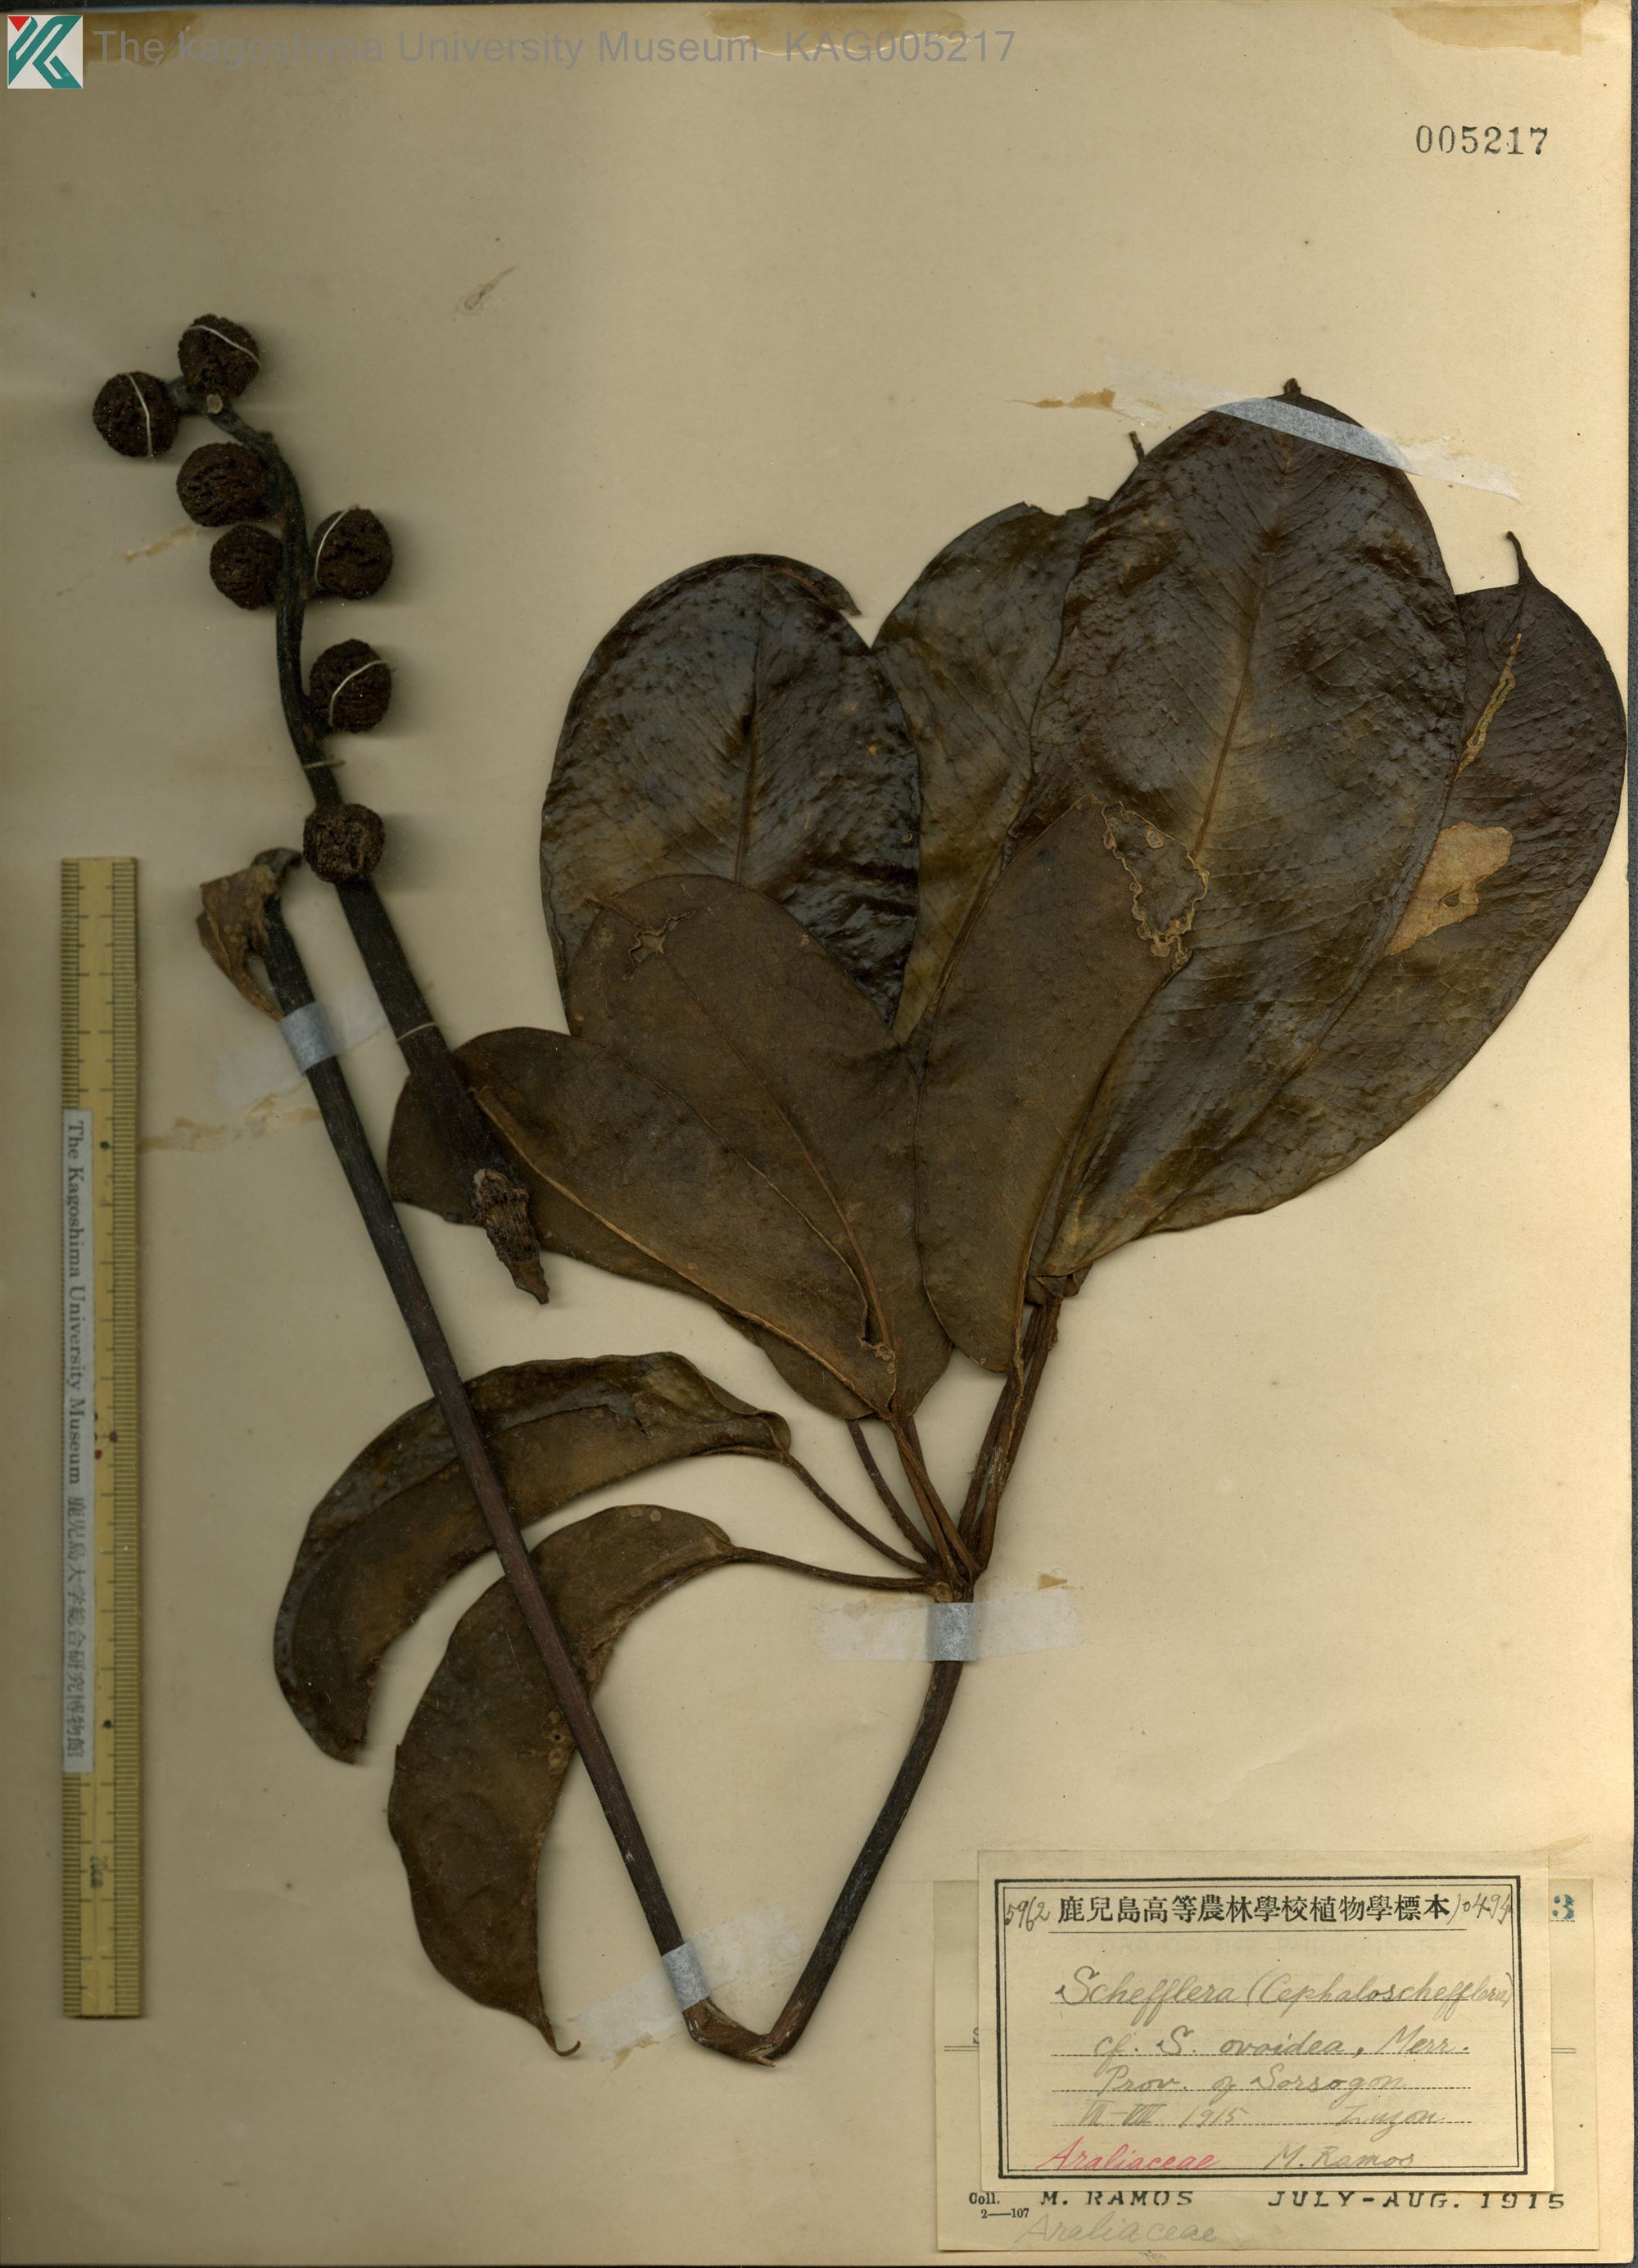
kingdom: Plantae
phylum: Tracheophyta
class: Magnoliopsida
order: Apiales
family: Araliaceae
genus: Heptapleurum
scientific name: Heptapleurum ovoideum
